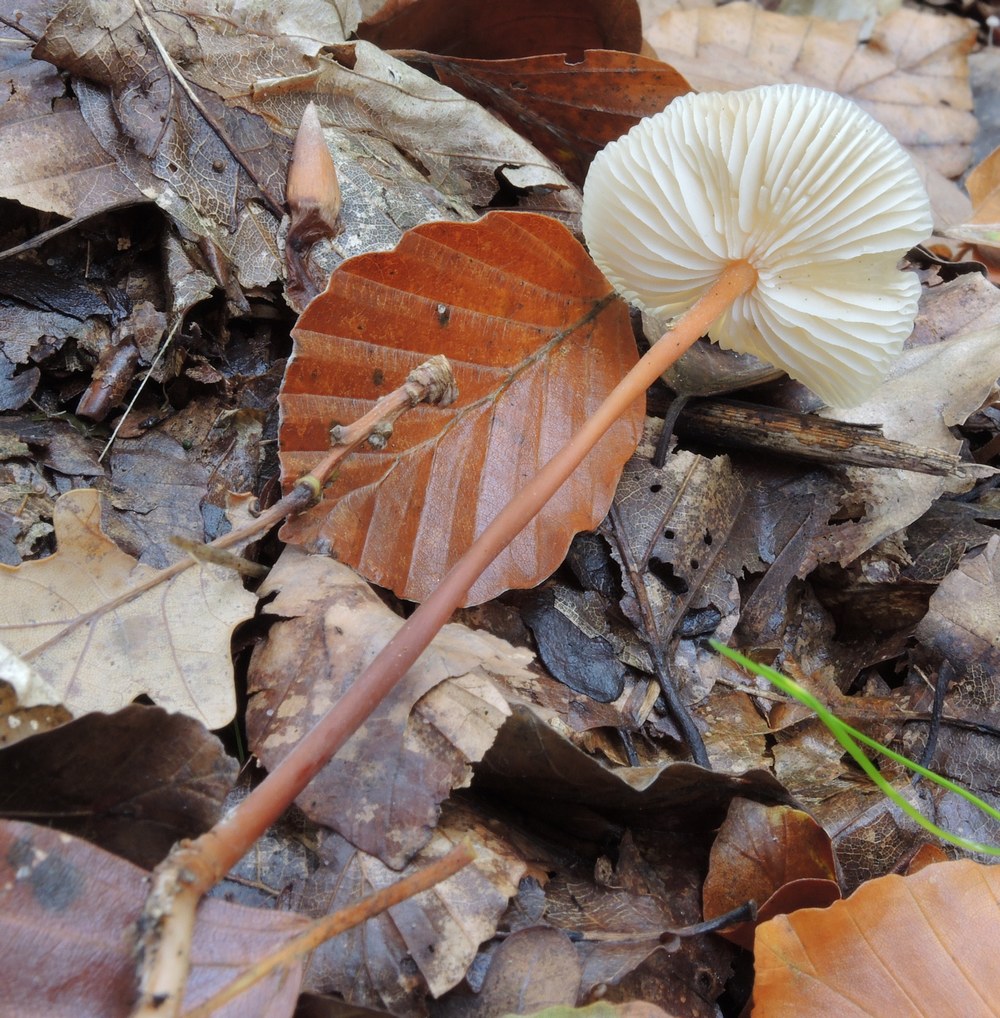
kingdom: Fungi
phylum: Basidiomycota
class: Agaricomycetes
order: Agaricales
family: Omphalotaceae
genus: Mycetinis
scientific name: Mycetinis scorodonius
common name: lille løghat
